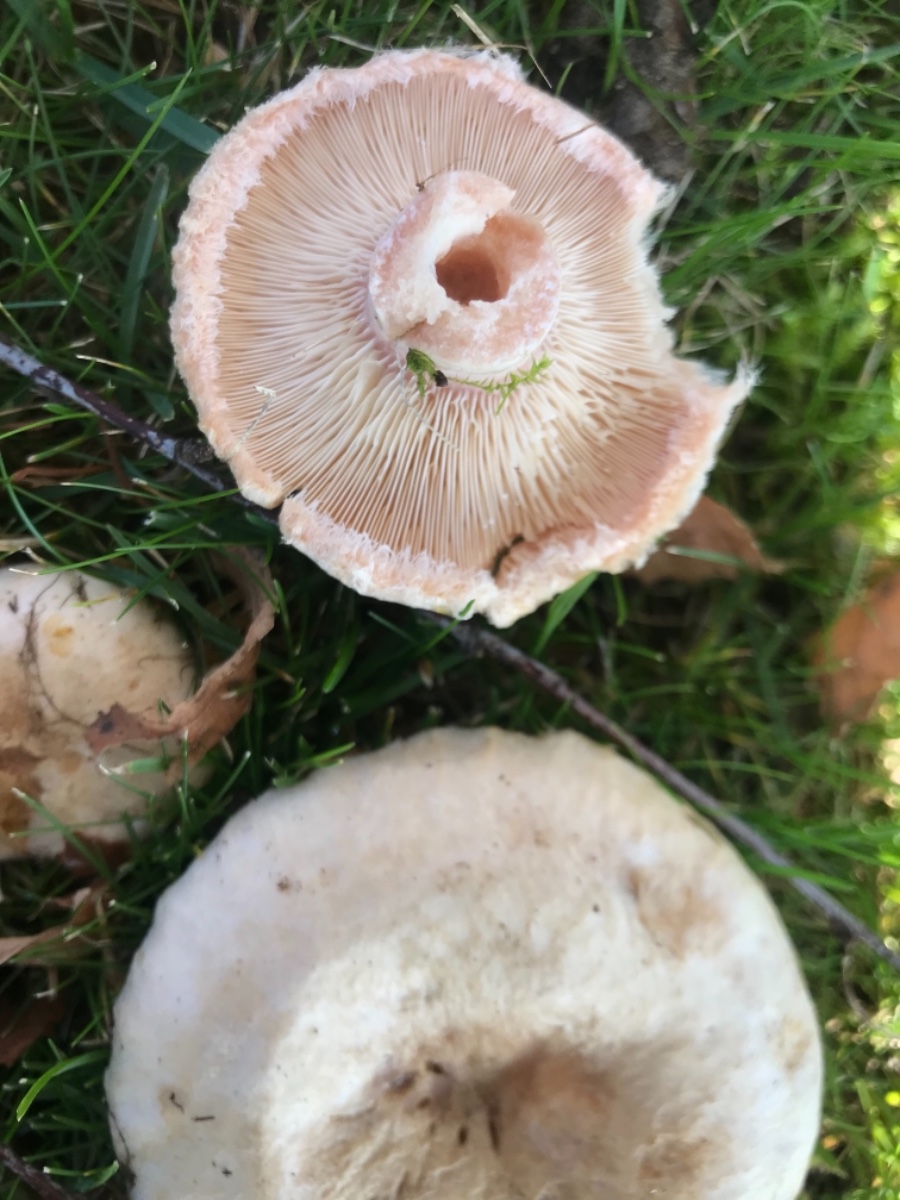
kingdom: Fungi
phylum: Basidiomycota
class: Agaricomycetes
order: Russulales
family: Russulaceae
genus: Lactarius
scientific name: Lactarius pubescens
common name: dunet mælkehat
